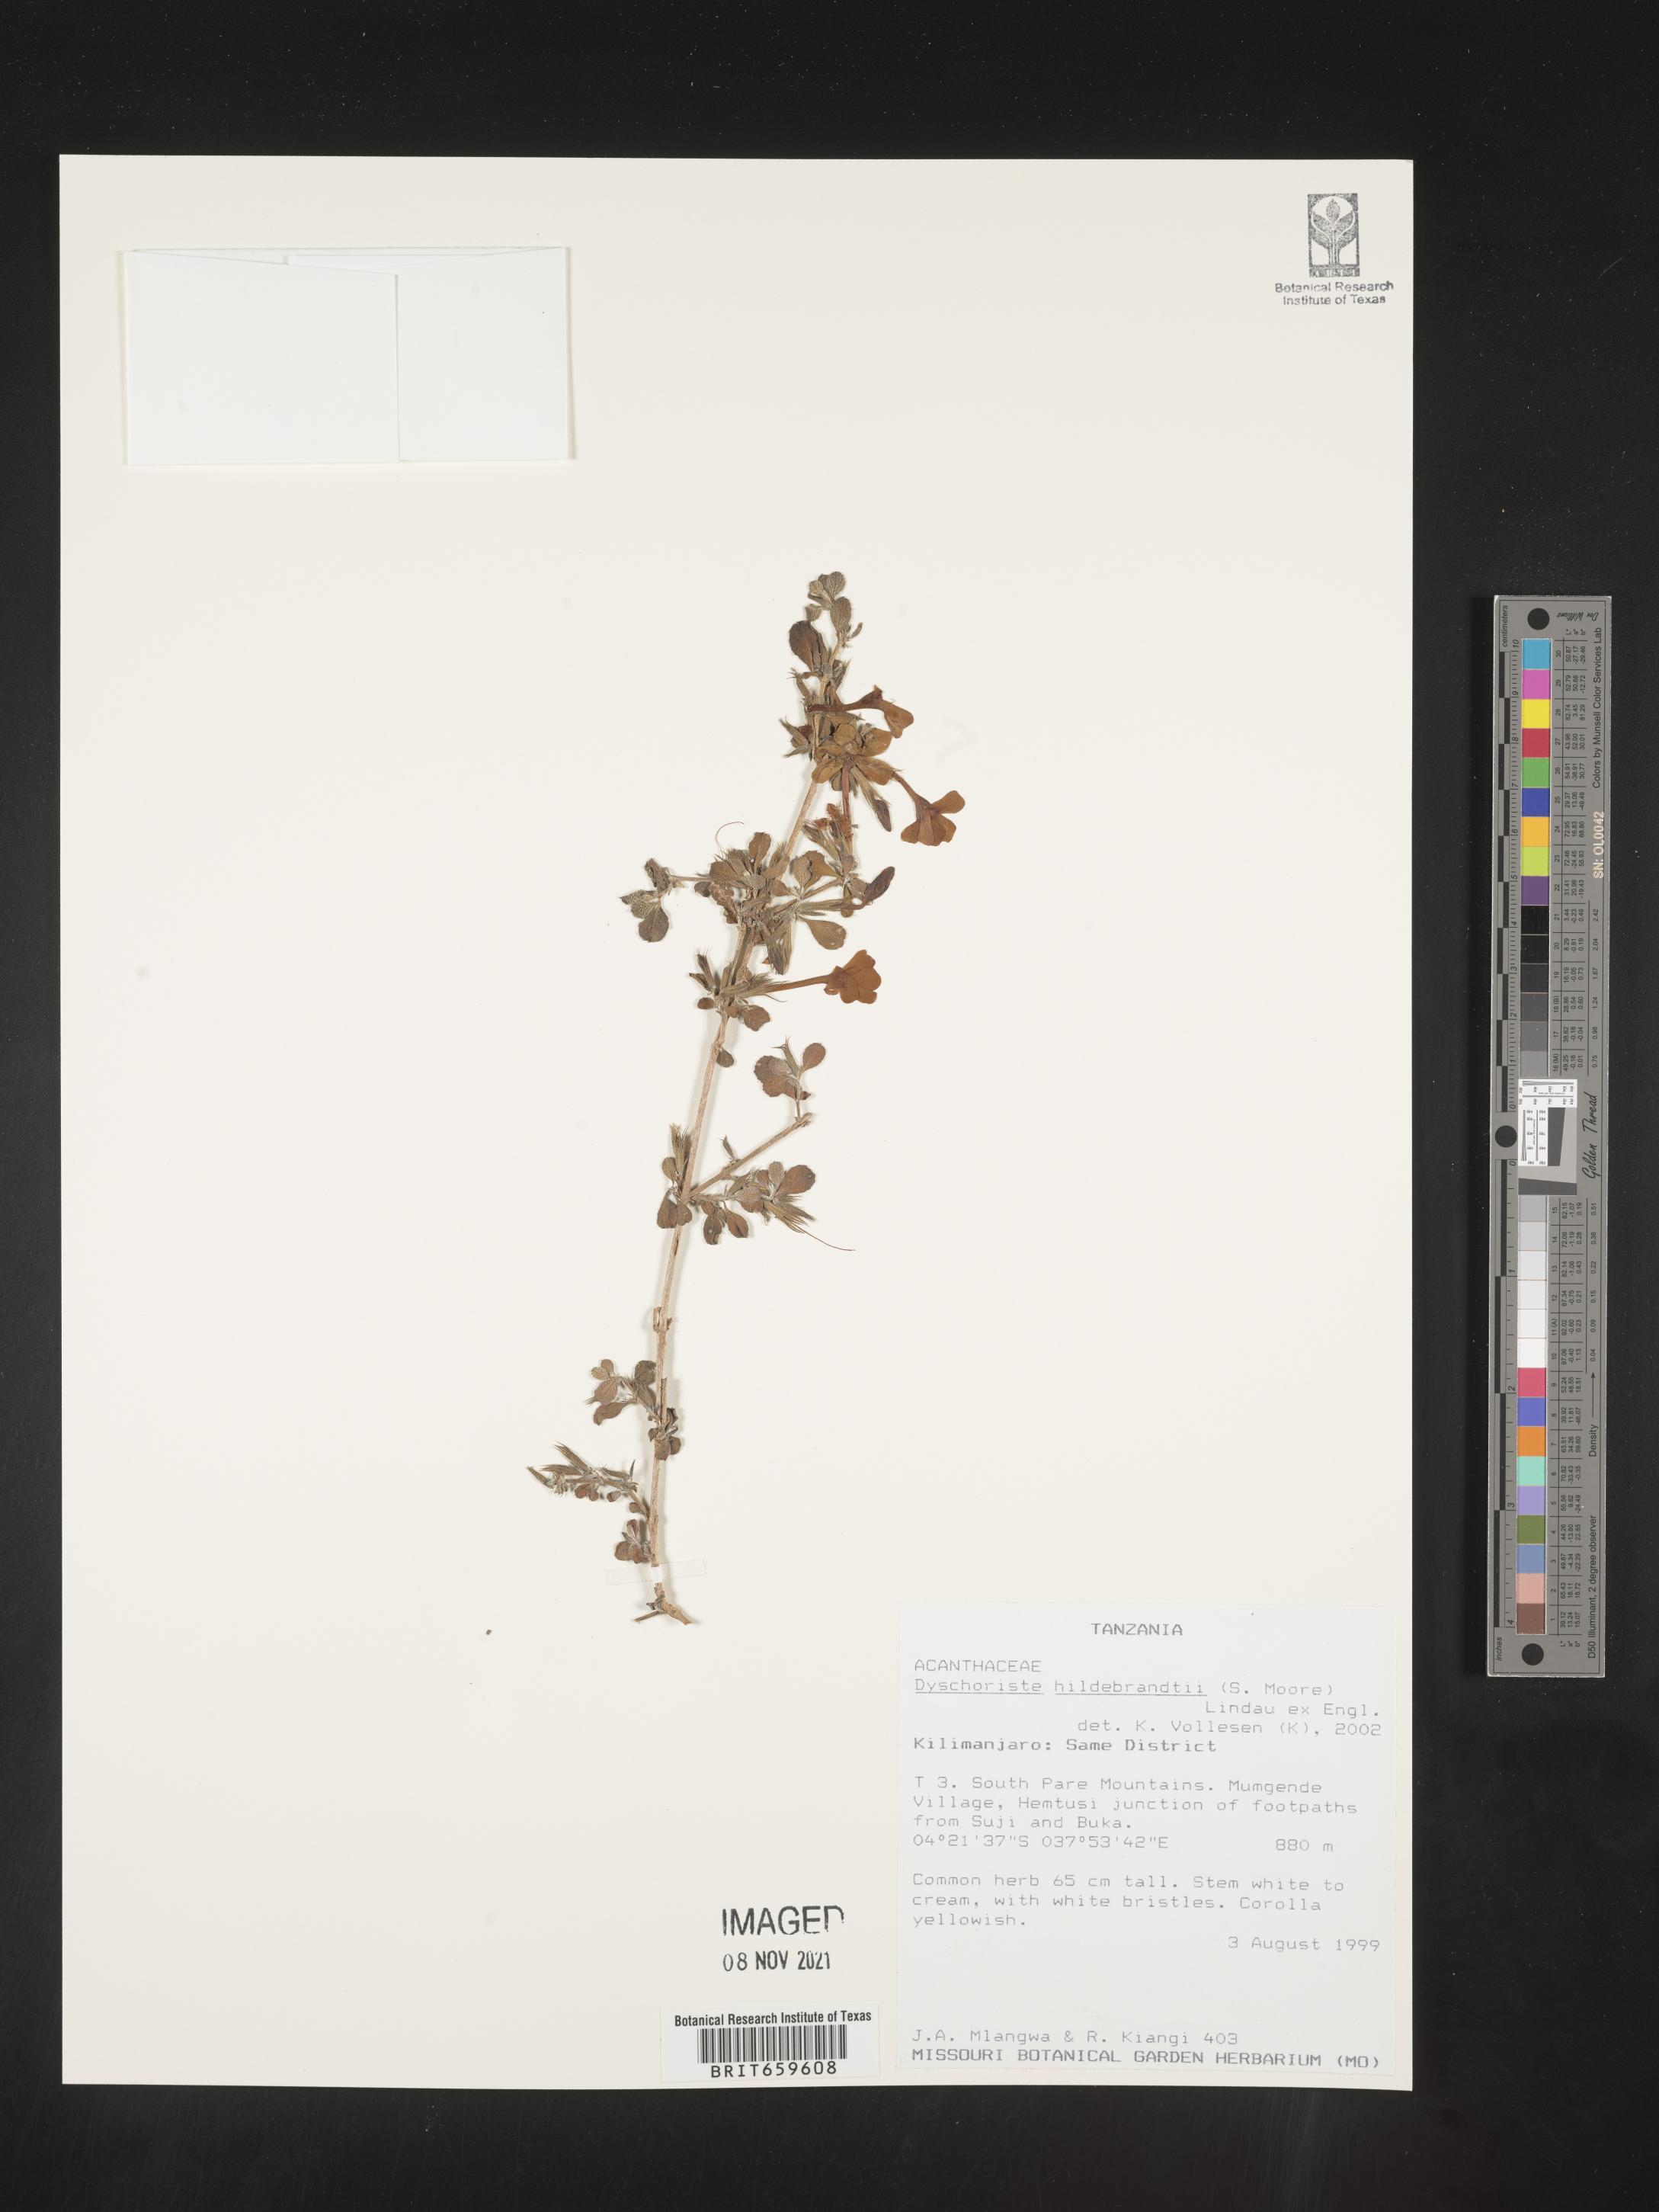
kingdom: Plantae
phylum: Tracheophyta
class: Magnoliopsida
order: Lamiales
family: Acanthaceae
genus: Dyschoriste
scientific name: Dyschoriste hildebrandtii
